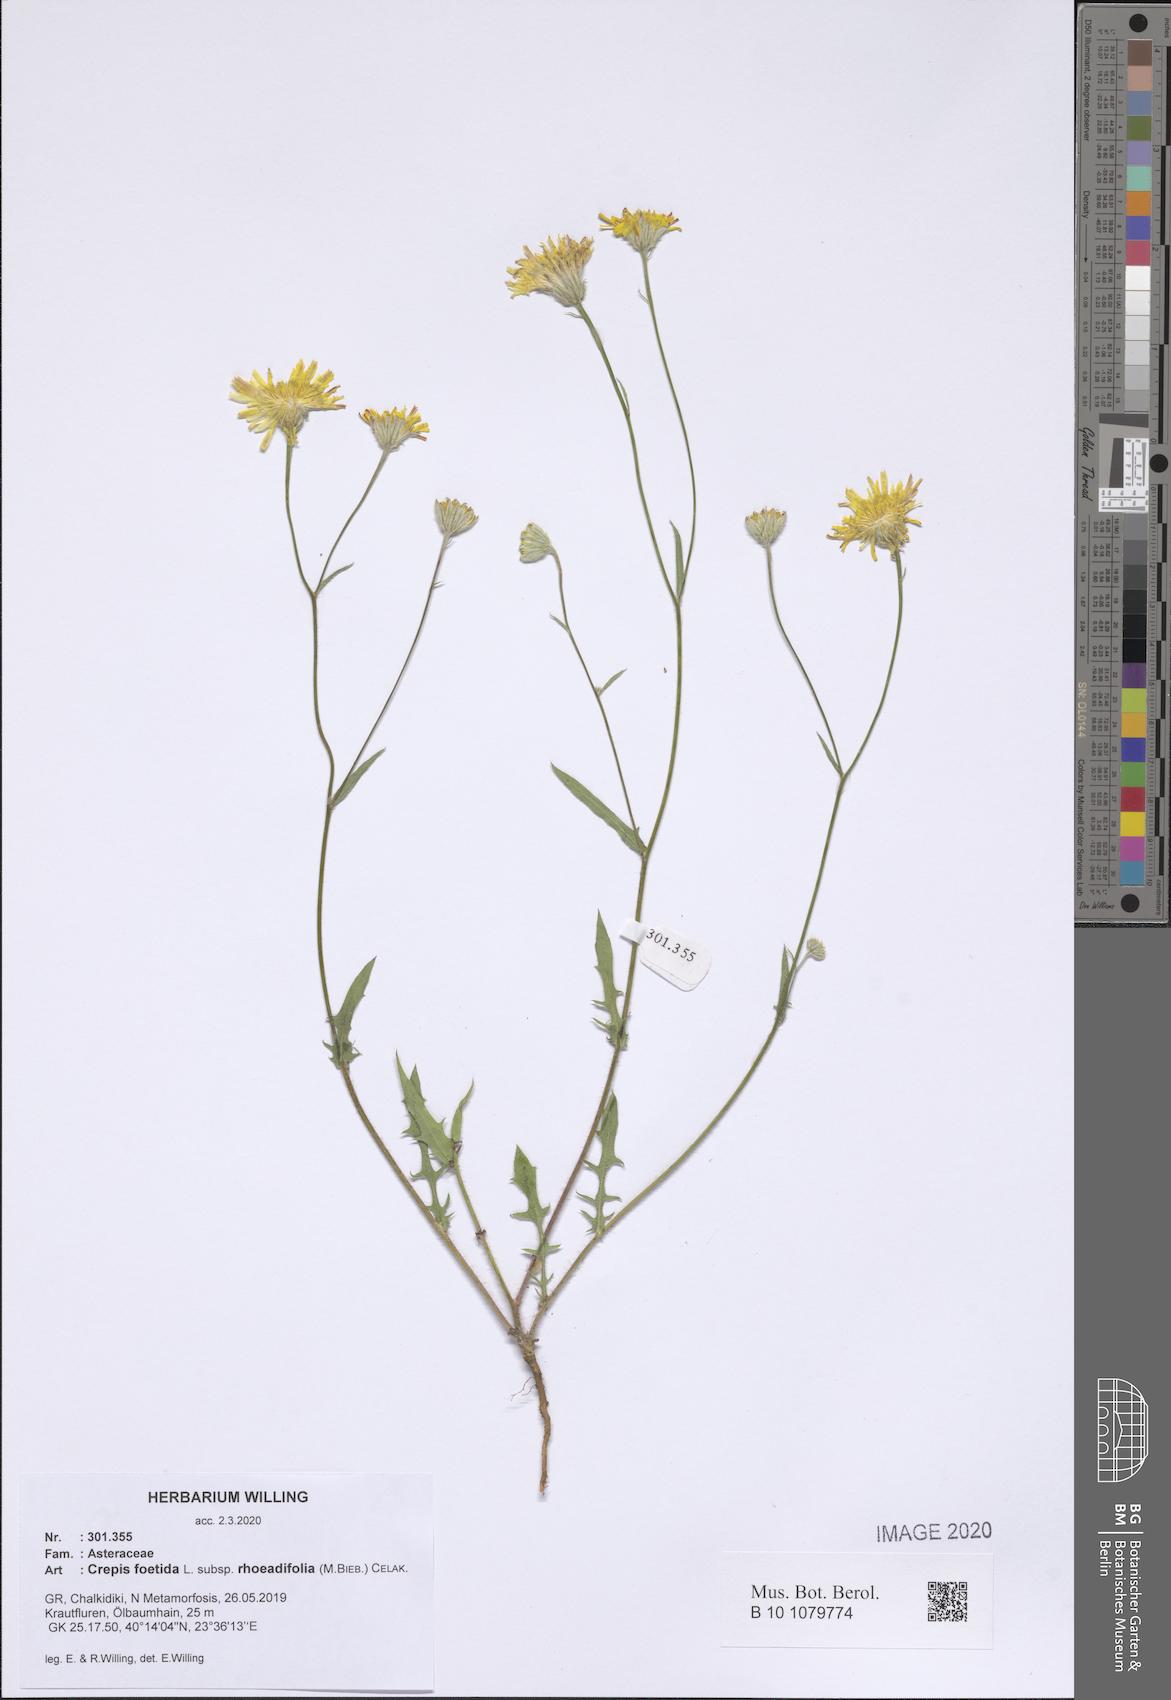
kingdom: Plantae
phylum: Tracheophyta
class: Magnoliopsida
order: Asterales
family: Asteraceae
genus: Crepis
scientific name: Crepis foetida
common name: Stinking hawk's-beard
